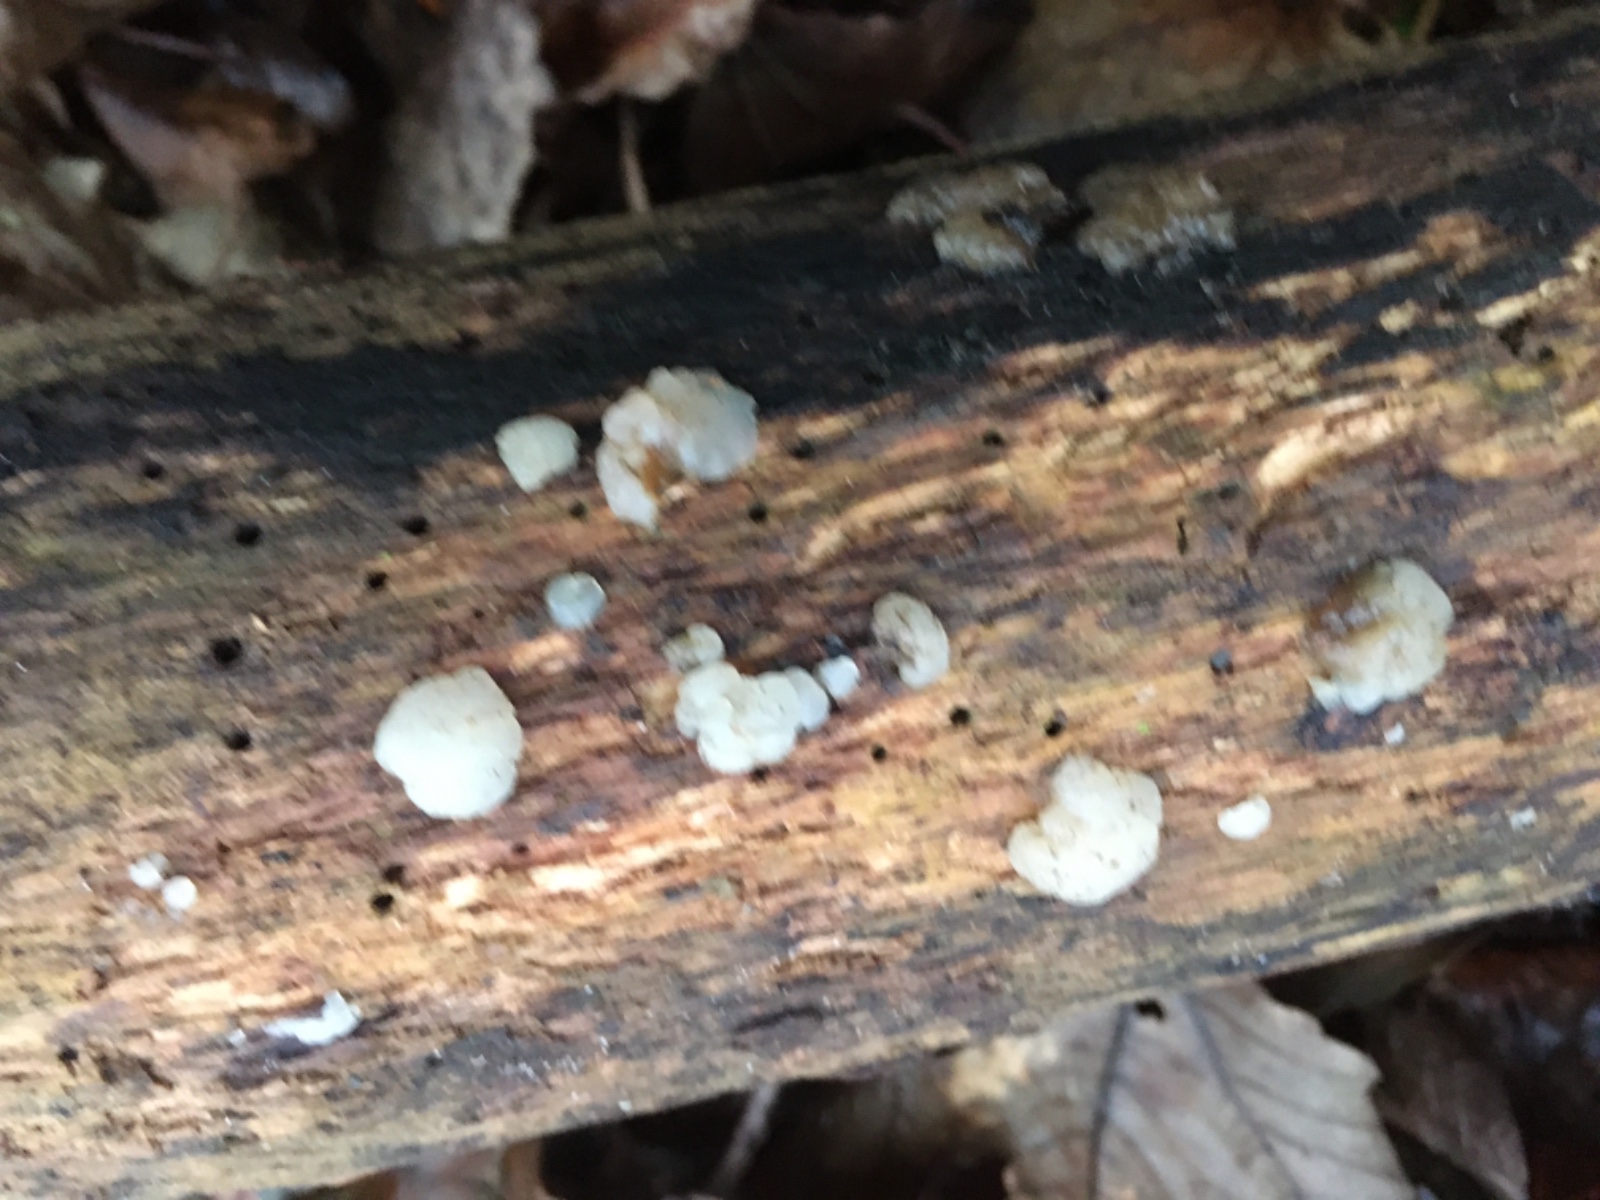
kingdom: Fungi
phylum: Basidiomycota
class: Agaricomycetes
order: Auriculariales
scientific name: Auriculariales
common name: judasøreordenen
